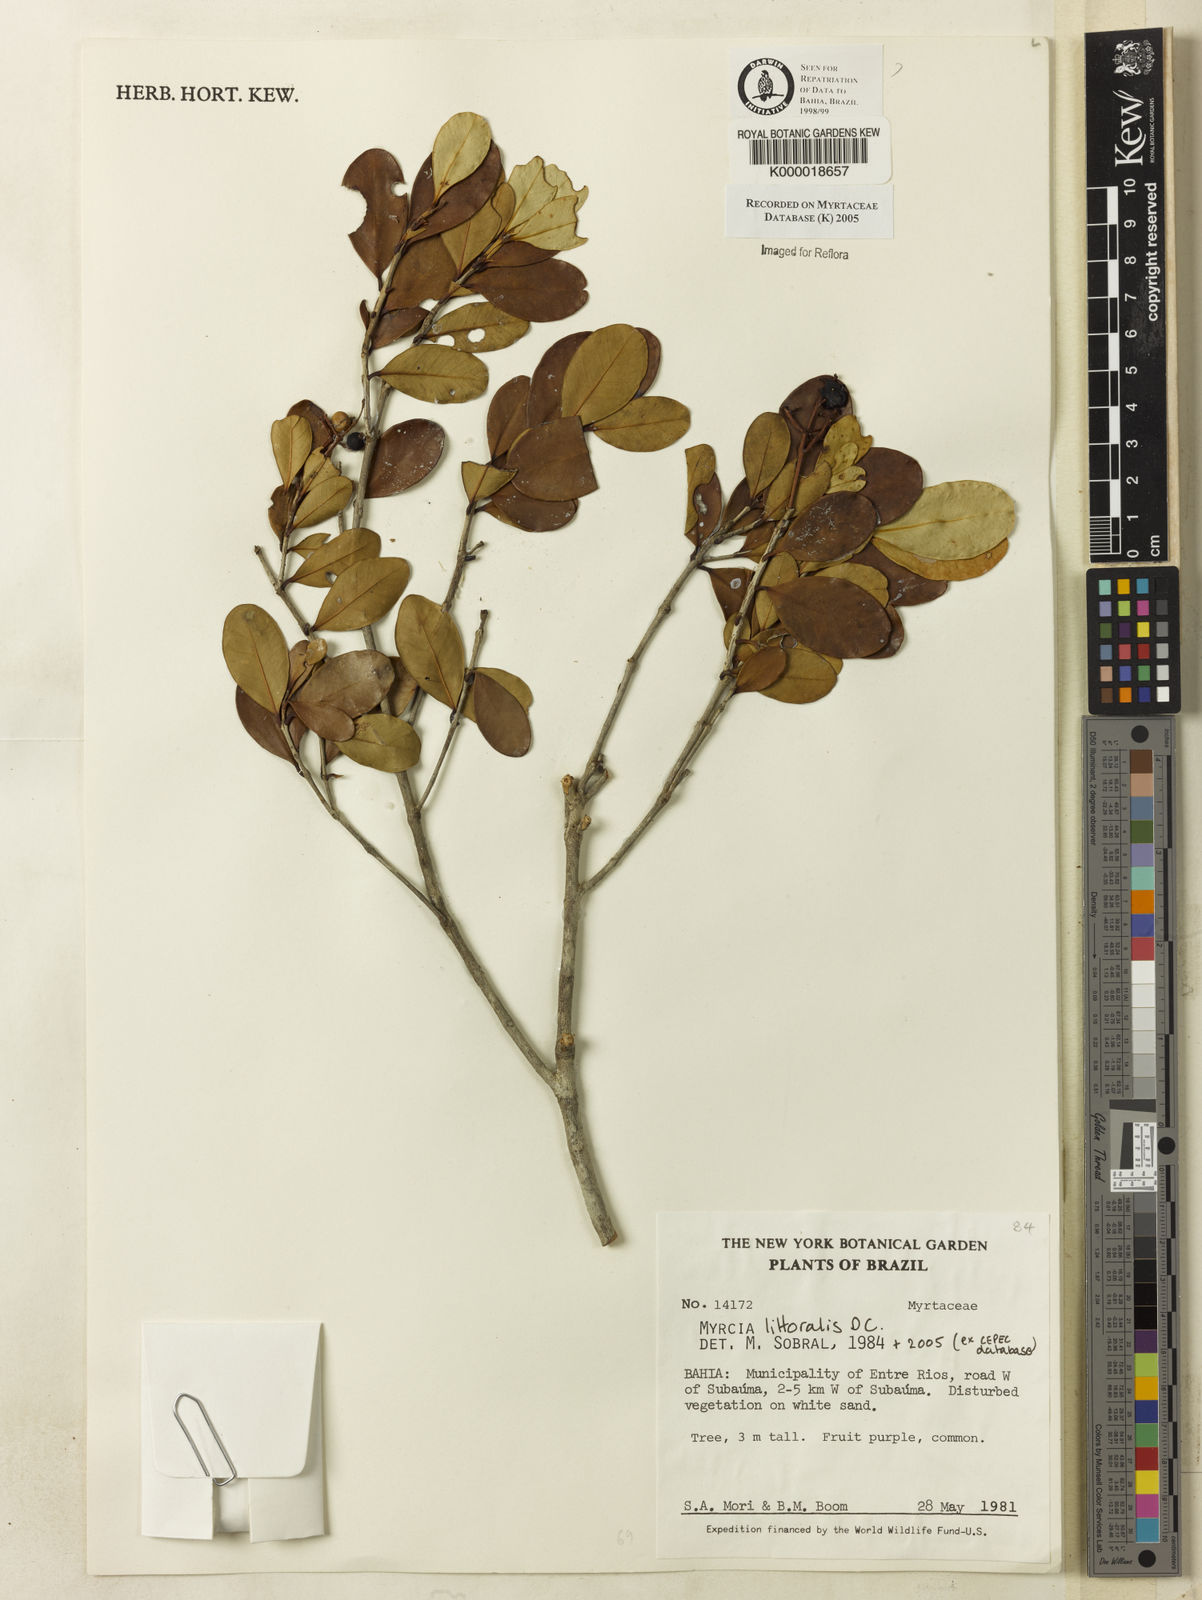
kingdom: Plantae
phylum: Tracheophyta
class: Magnoliopsida
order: Myrtales
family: Myrtaceae
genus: Myrcia
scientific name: Myrcia
